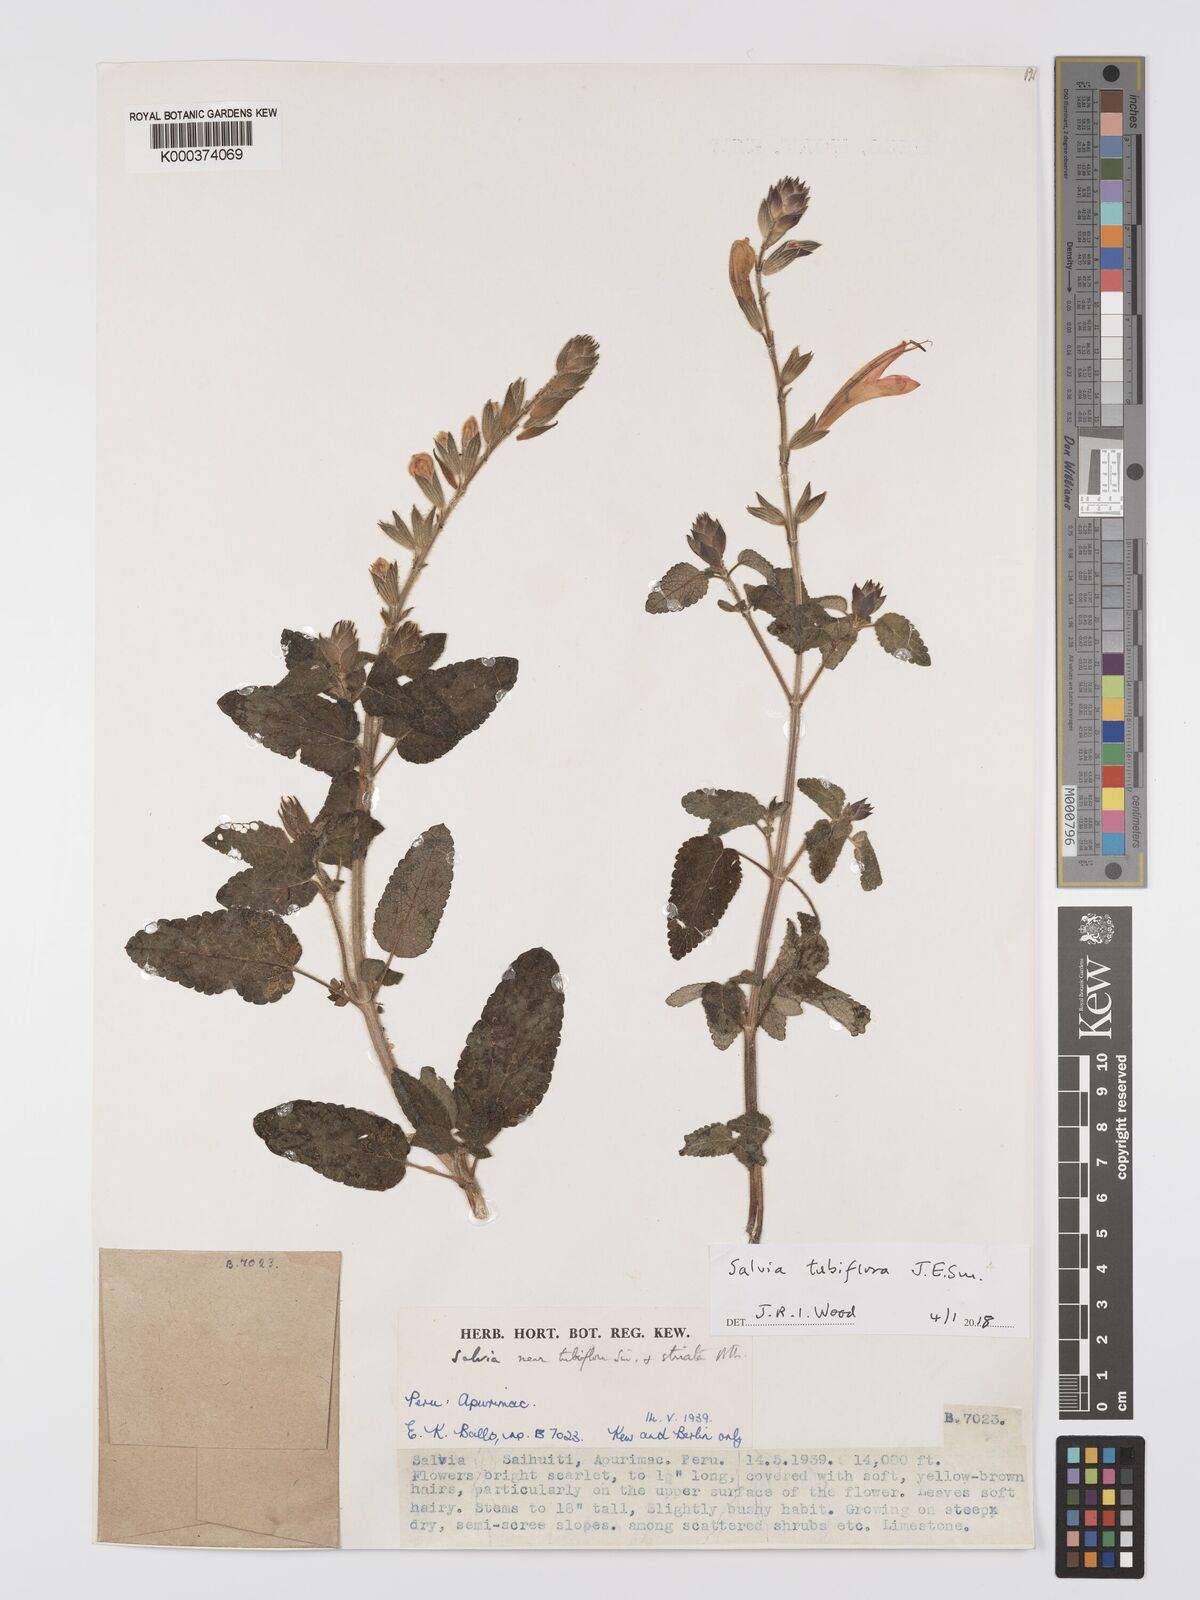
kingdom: Plantae
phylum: Tracheophyta
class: Magnoliopsida
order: Lamiales
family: Lamiaceae
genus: Salvia
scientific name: Salvia tubiflora
